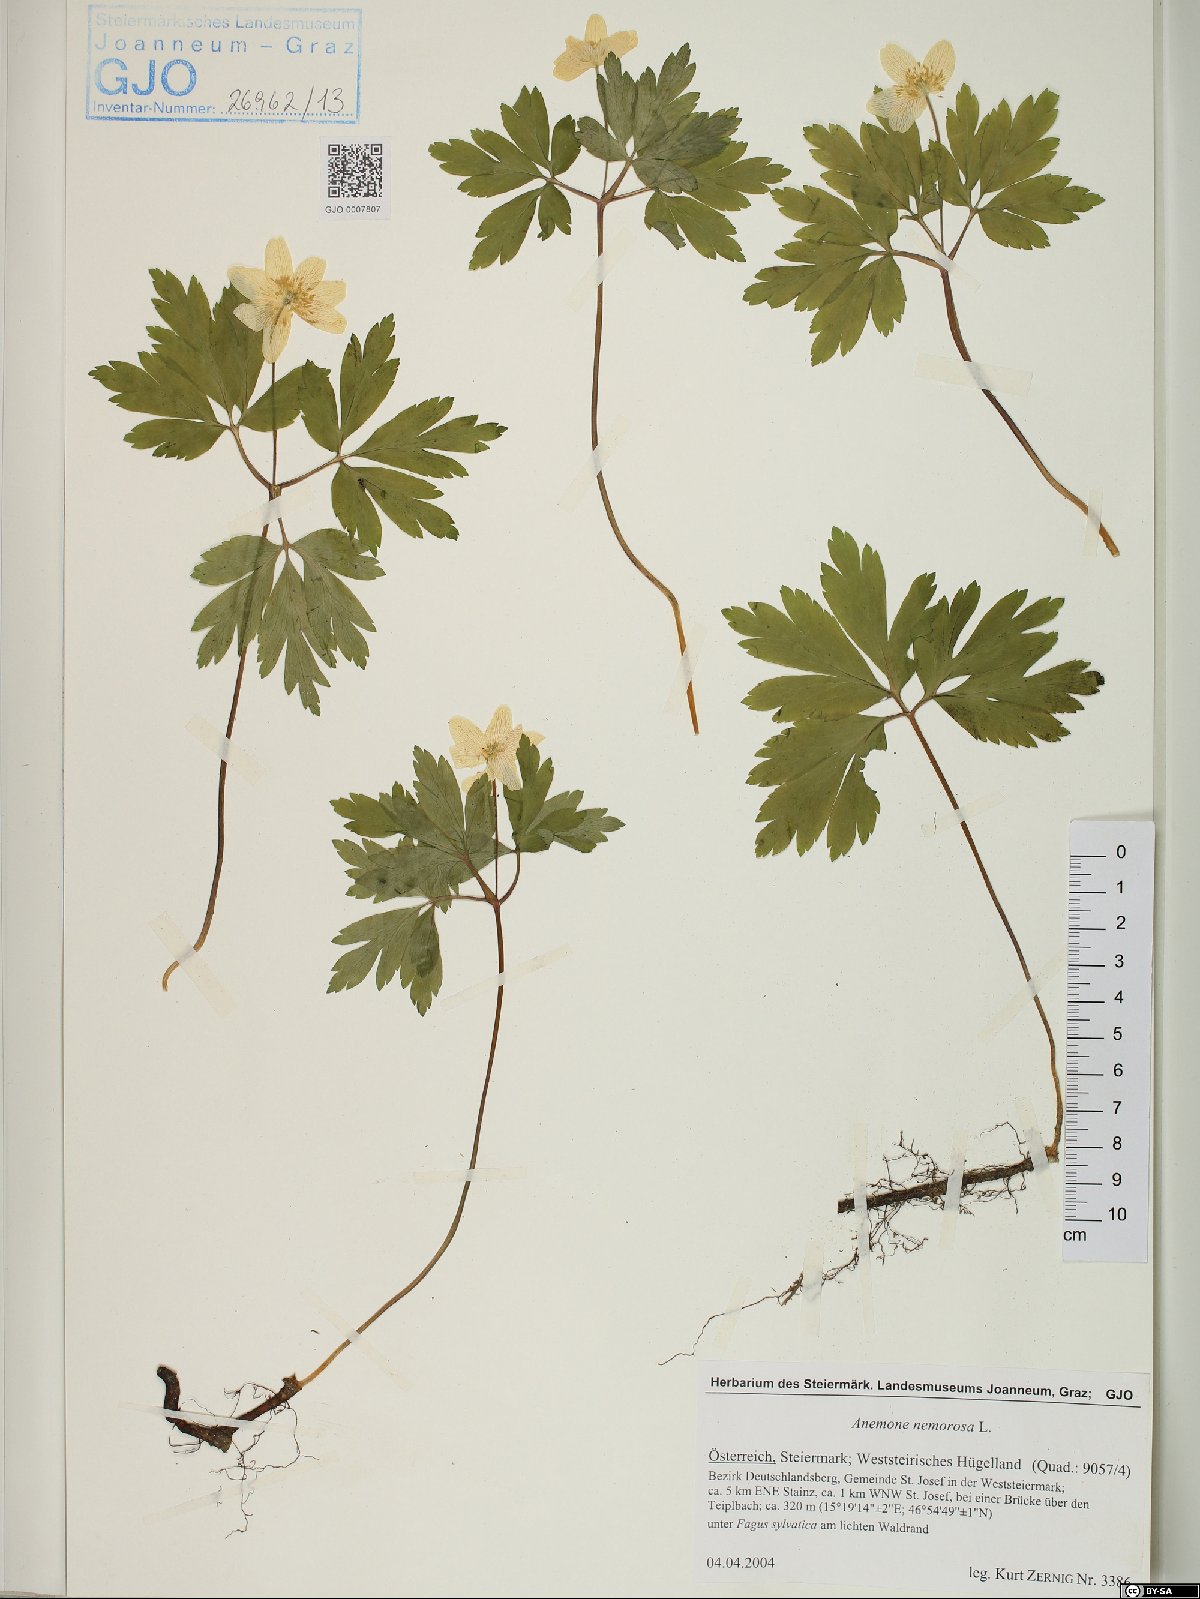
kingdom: Plantae
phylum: Tracheophyta
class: Magnoliopsida
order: Ranunculales
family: Ranunculaceae
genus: Anemone
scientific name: Anemone nemorosa
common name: Wood anemone
